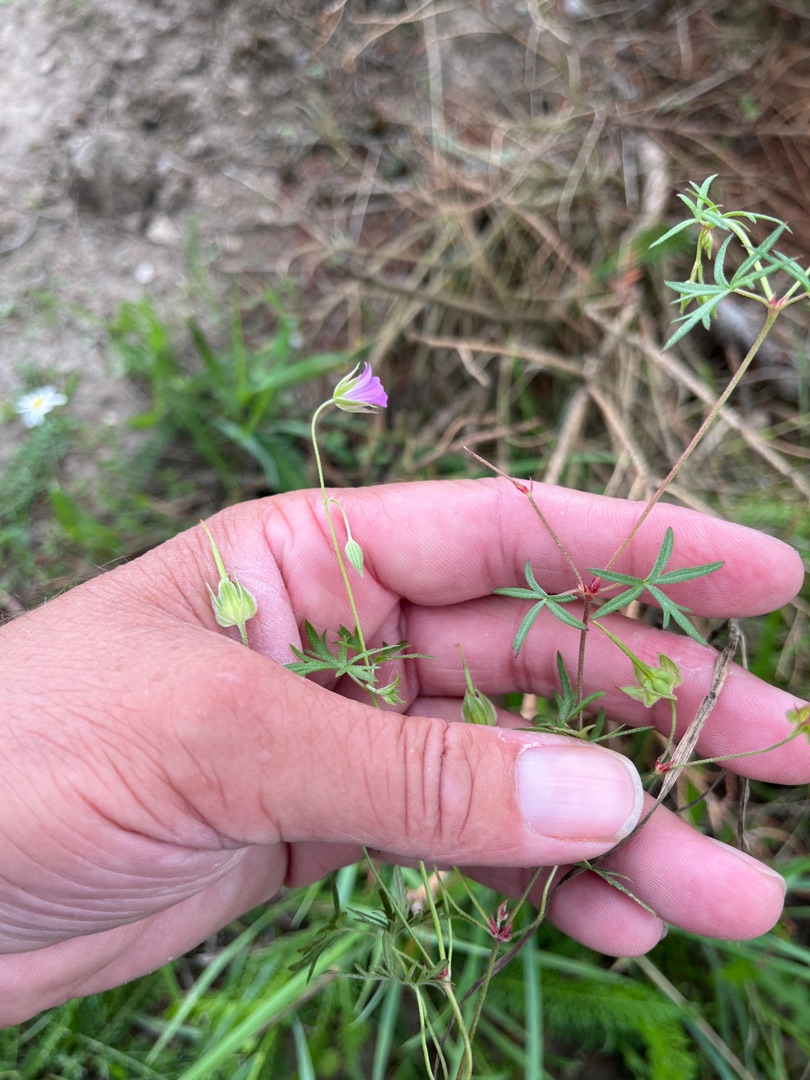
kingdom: Plantae
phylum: Tracheophyta
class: Magnoliopsida
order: Geraniales
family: Geraniaceae
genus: Geranium
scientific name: Geranium columbinum
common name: Storbægret storkenæb
